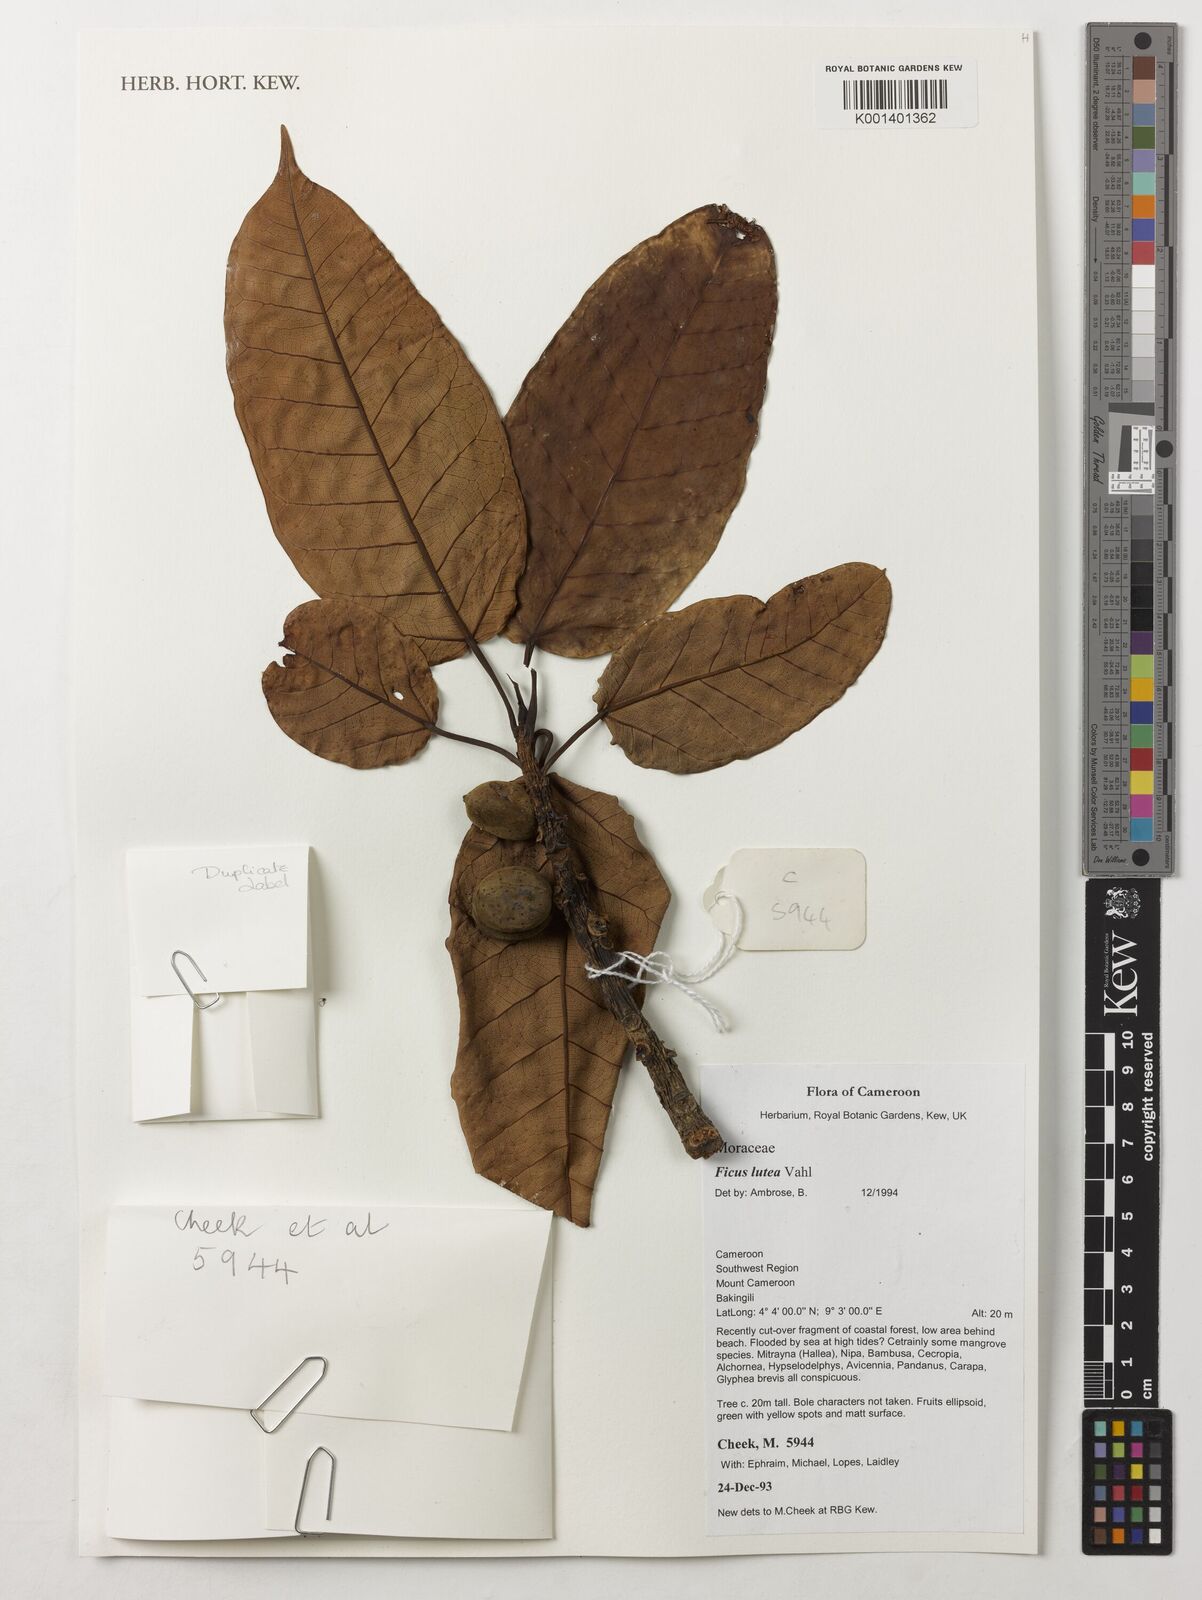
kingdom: Plantae
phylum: Tracheophyta
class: Magnoliopsida
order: Rosales
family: Moraceae
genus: Ficus
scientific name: Ficus lutea
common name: Giant-leaved fig
